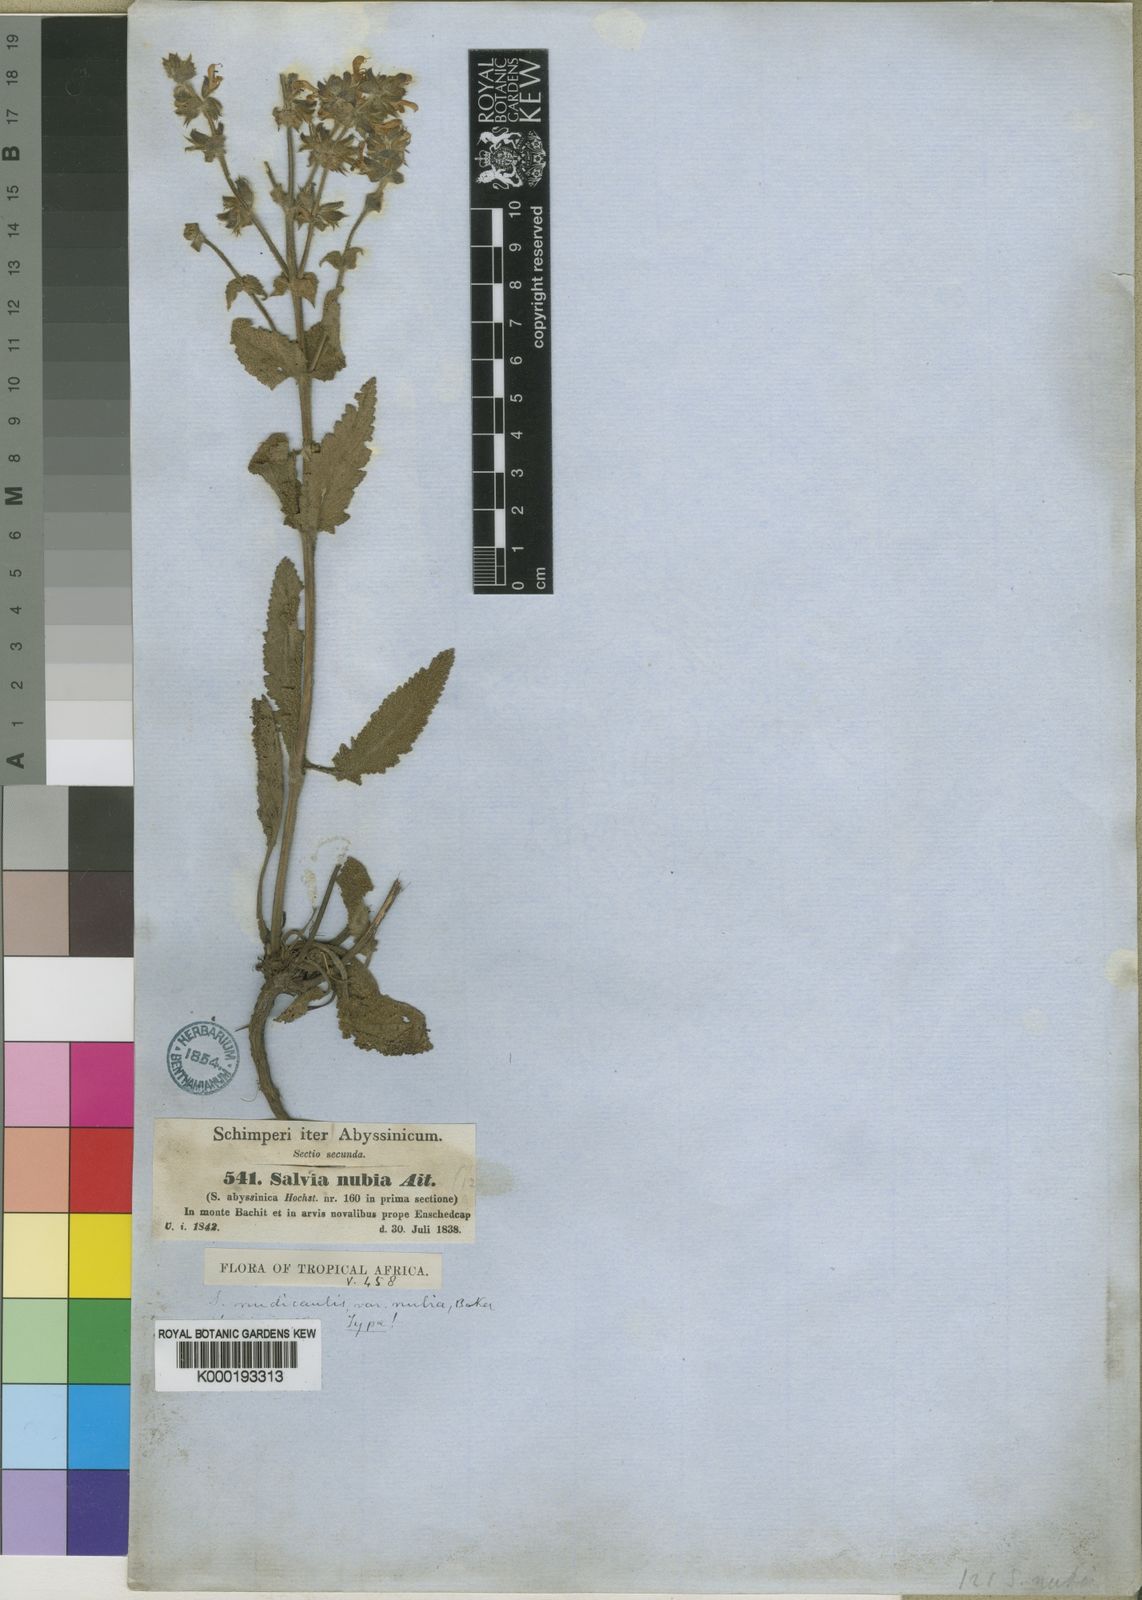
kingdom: Plantae
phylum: Tracheophyta
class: Magnoliopsida
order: Lamiales
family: Lamiaceae
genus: Salvia
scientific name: Salvia merjamie
